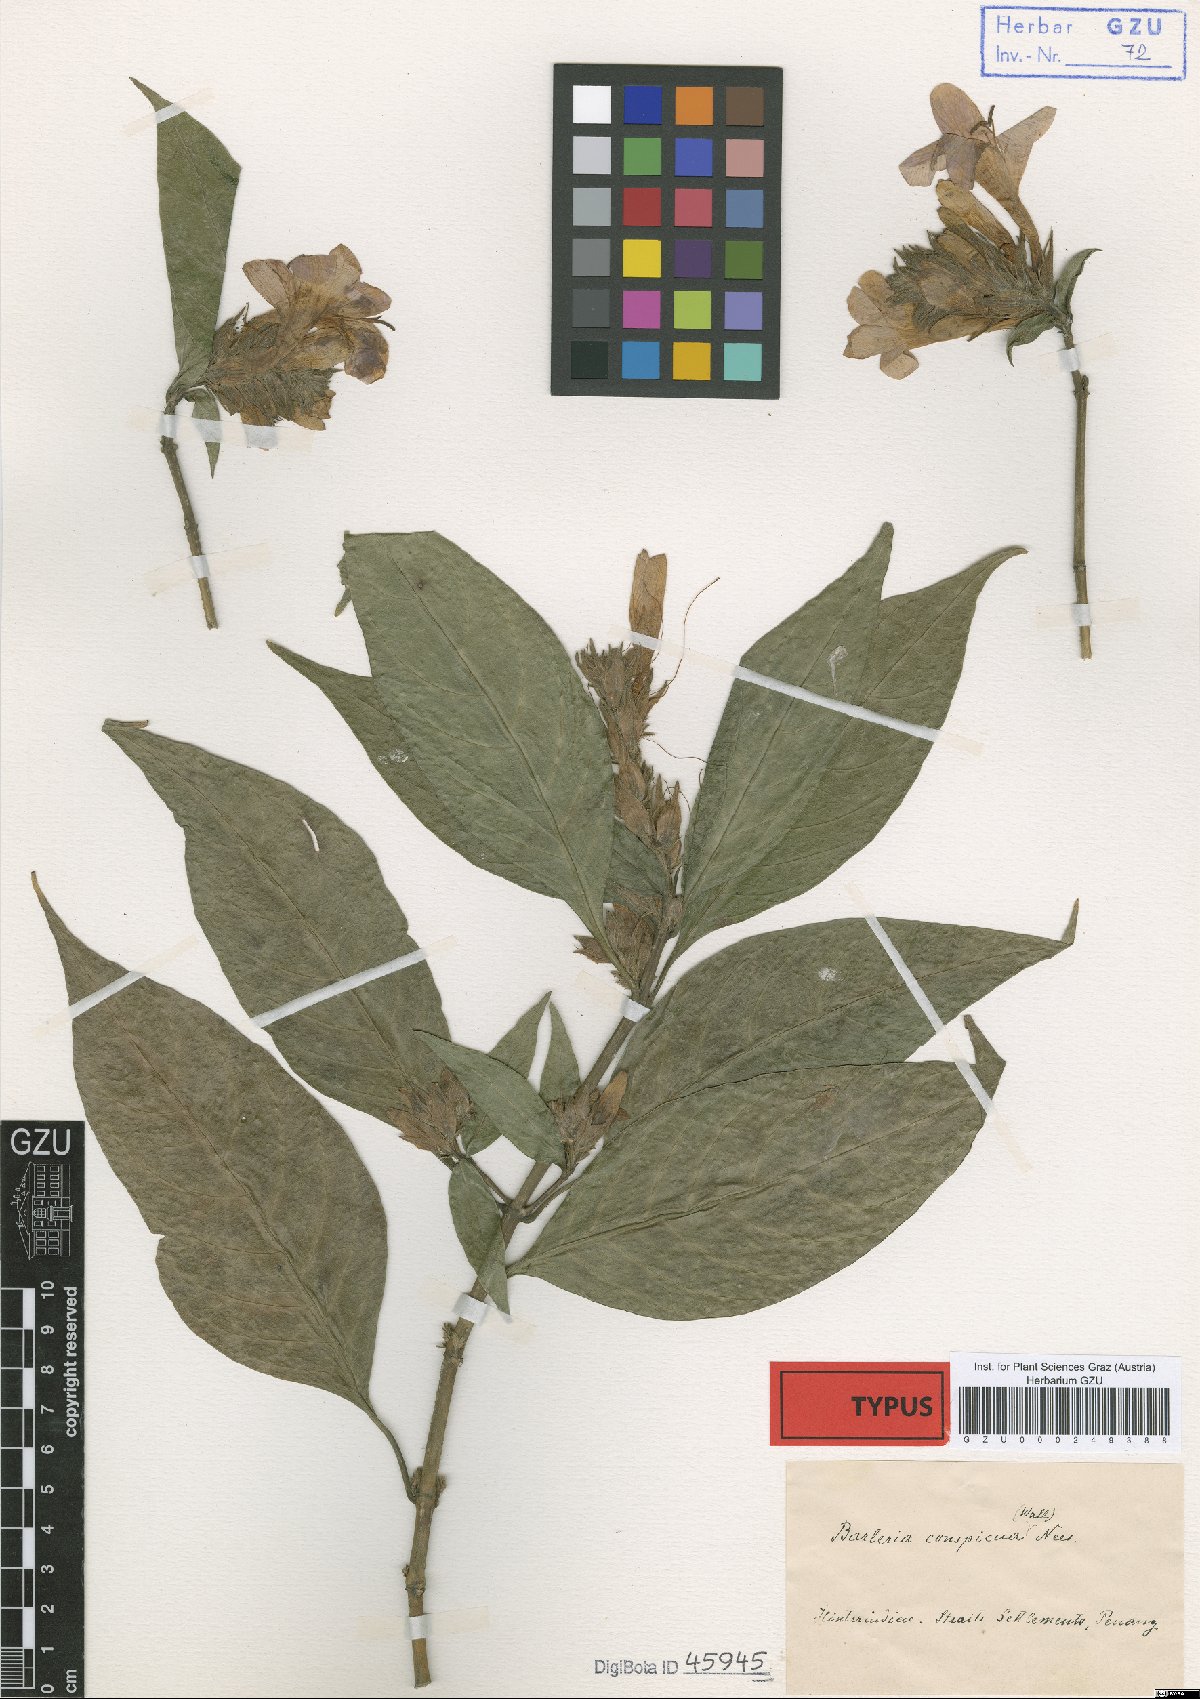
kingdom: Plantae
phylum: Tracheophyta
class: Magnoliopsida
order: Lamiales
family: Acanthaceae
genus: Barleria
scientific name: Barleria conspicua
